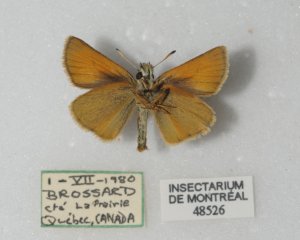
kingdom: Animalia
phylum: Arthropoda
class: Insecta
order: Lepidoptera
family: Hesperiidae
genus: Thymelicus
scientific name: Thymelicus lineola
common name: European Skipper
